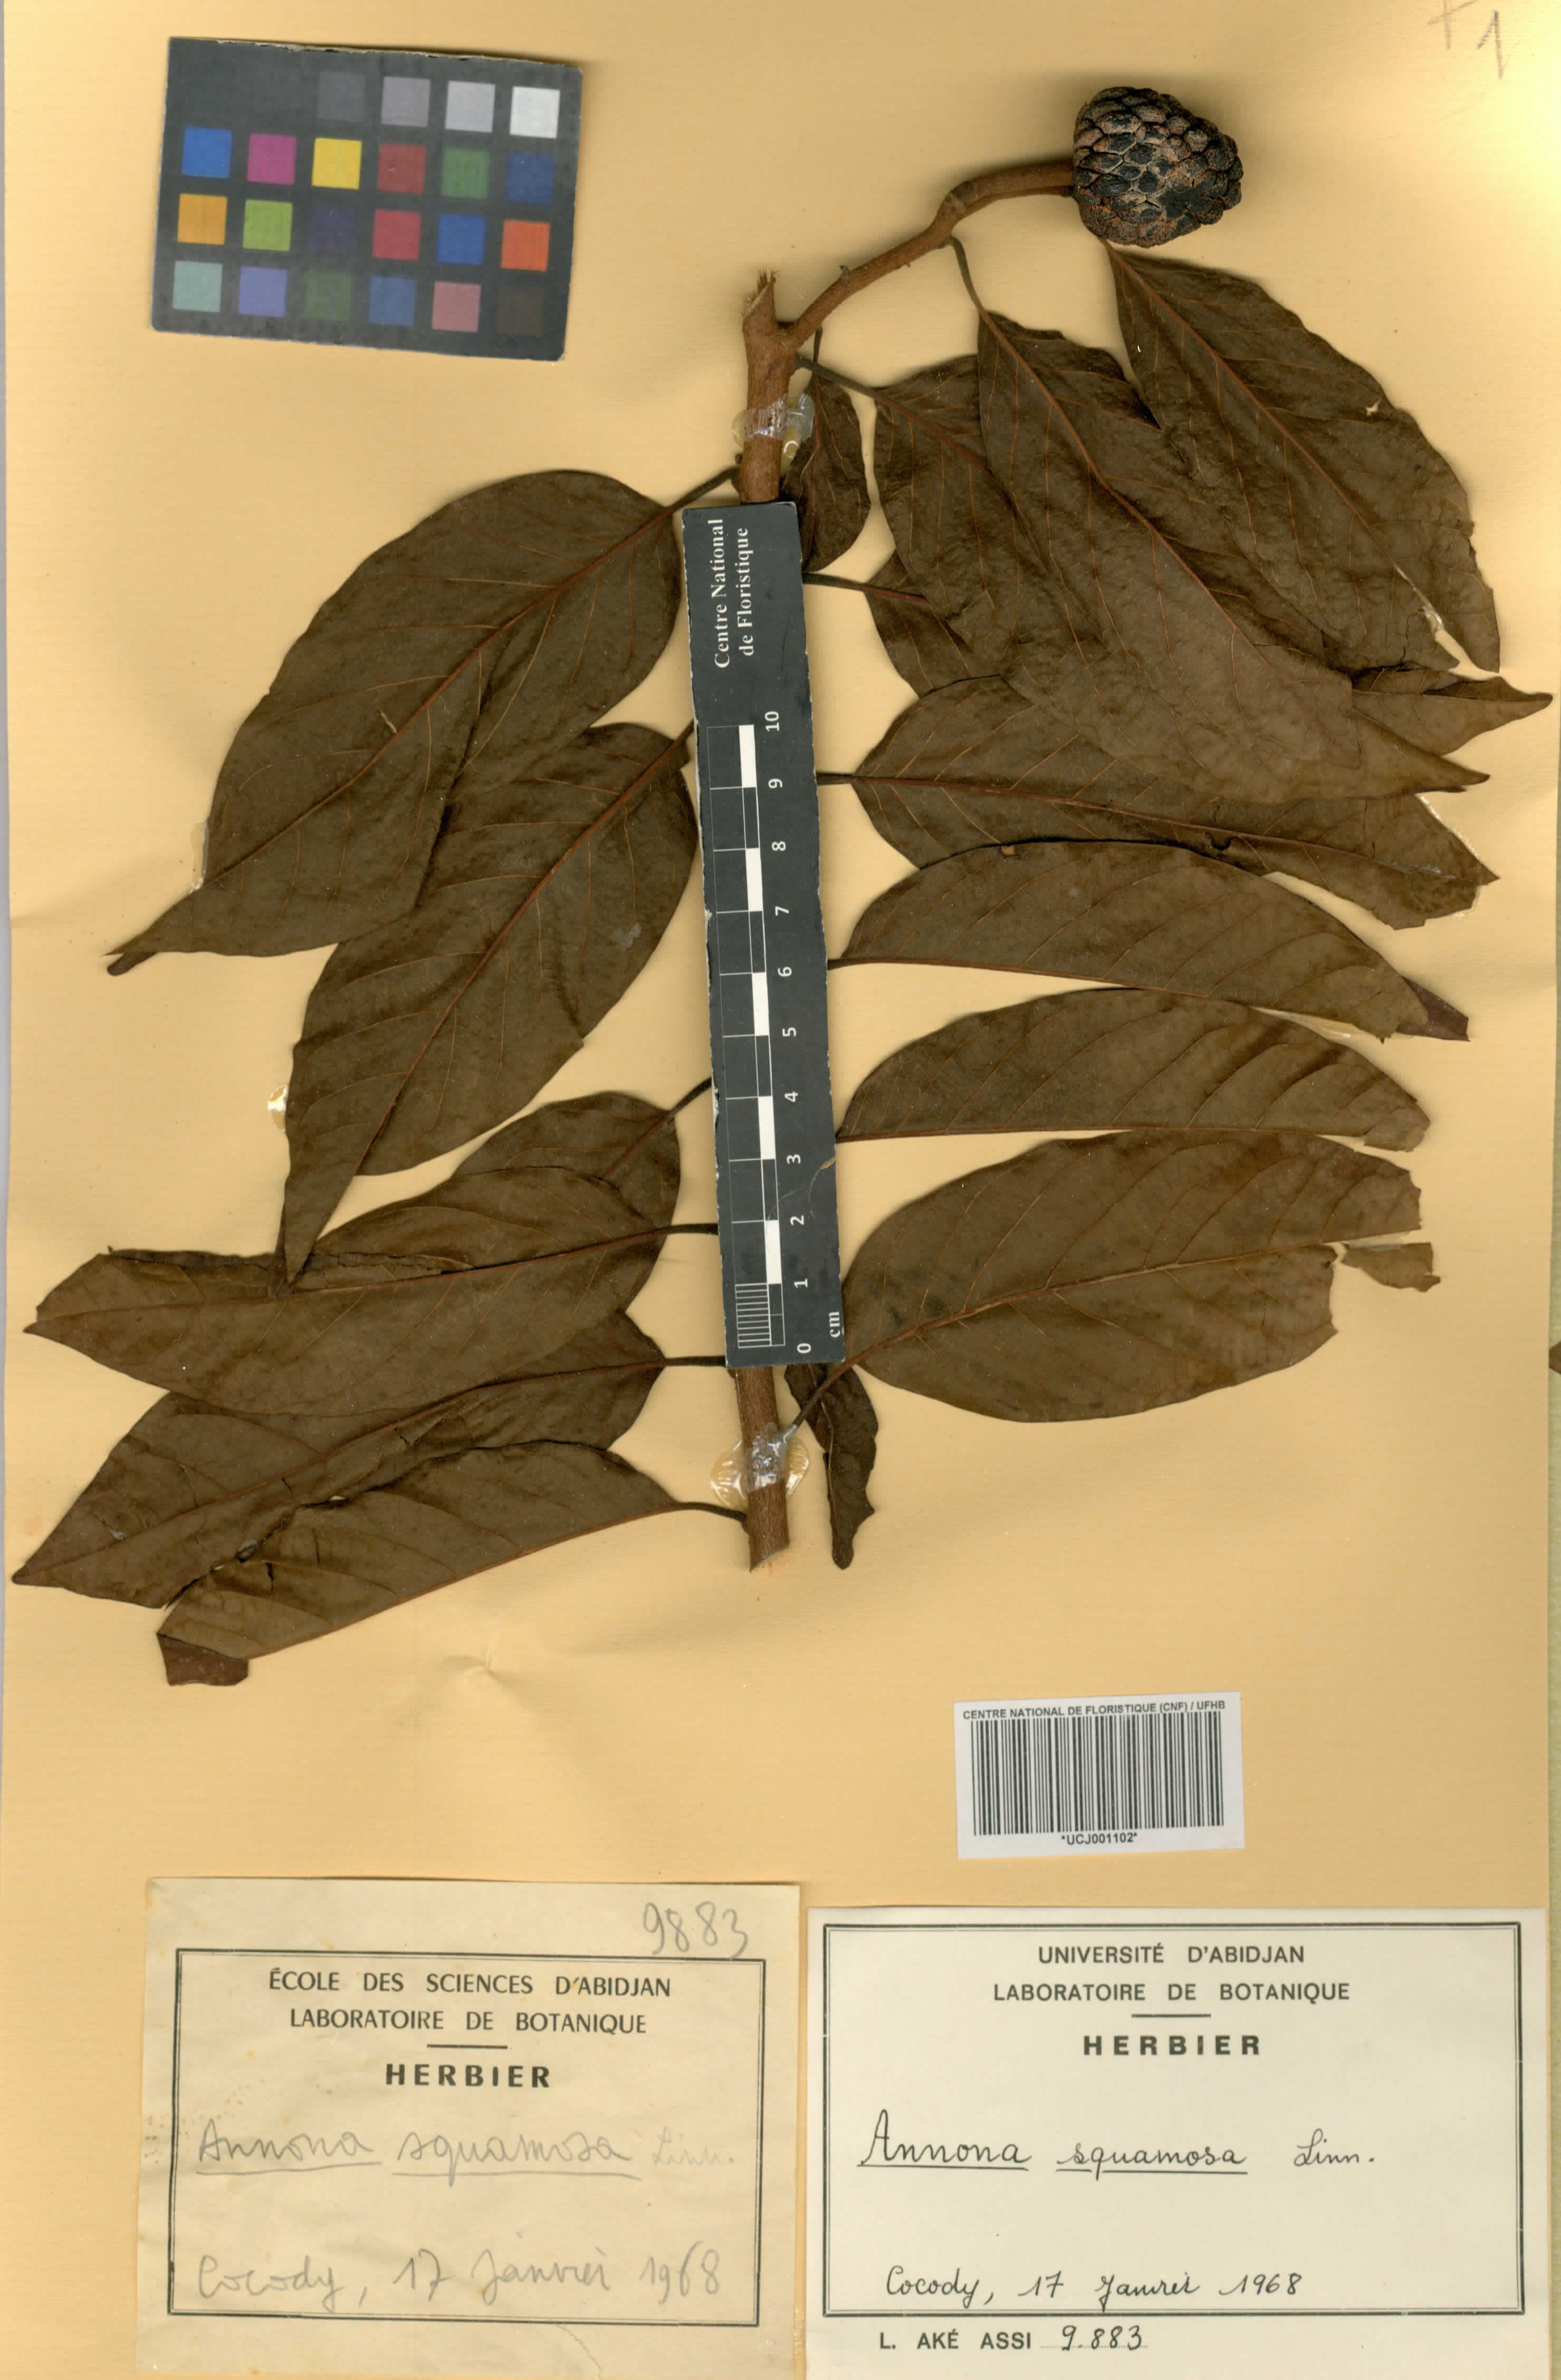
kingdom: Plantae
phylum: Tracheophyta
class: Magnoliopsida
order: Magnoliales
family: Annonaceae
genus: Annona
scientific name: Annona squamosa
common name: Custard-apple
